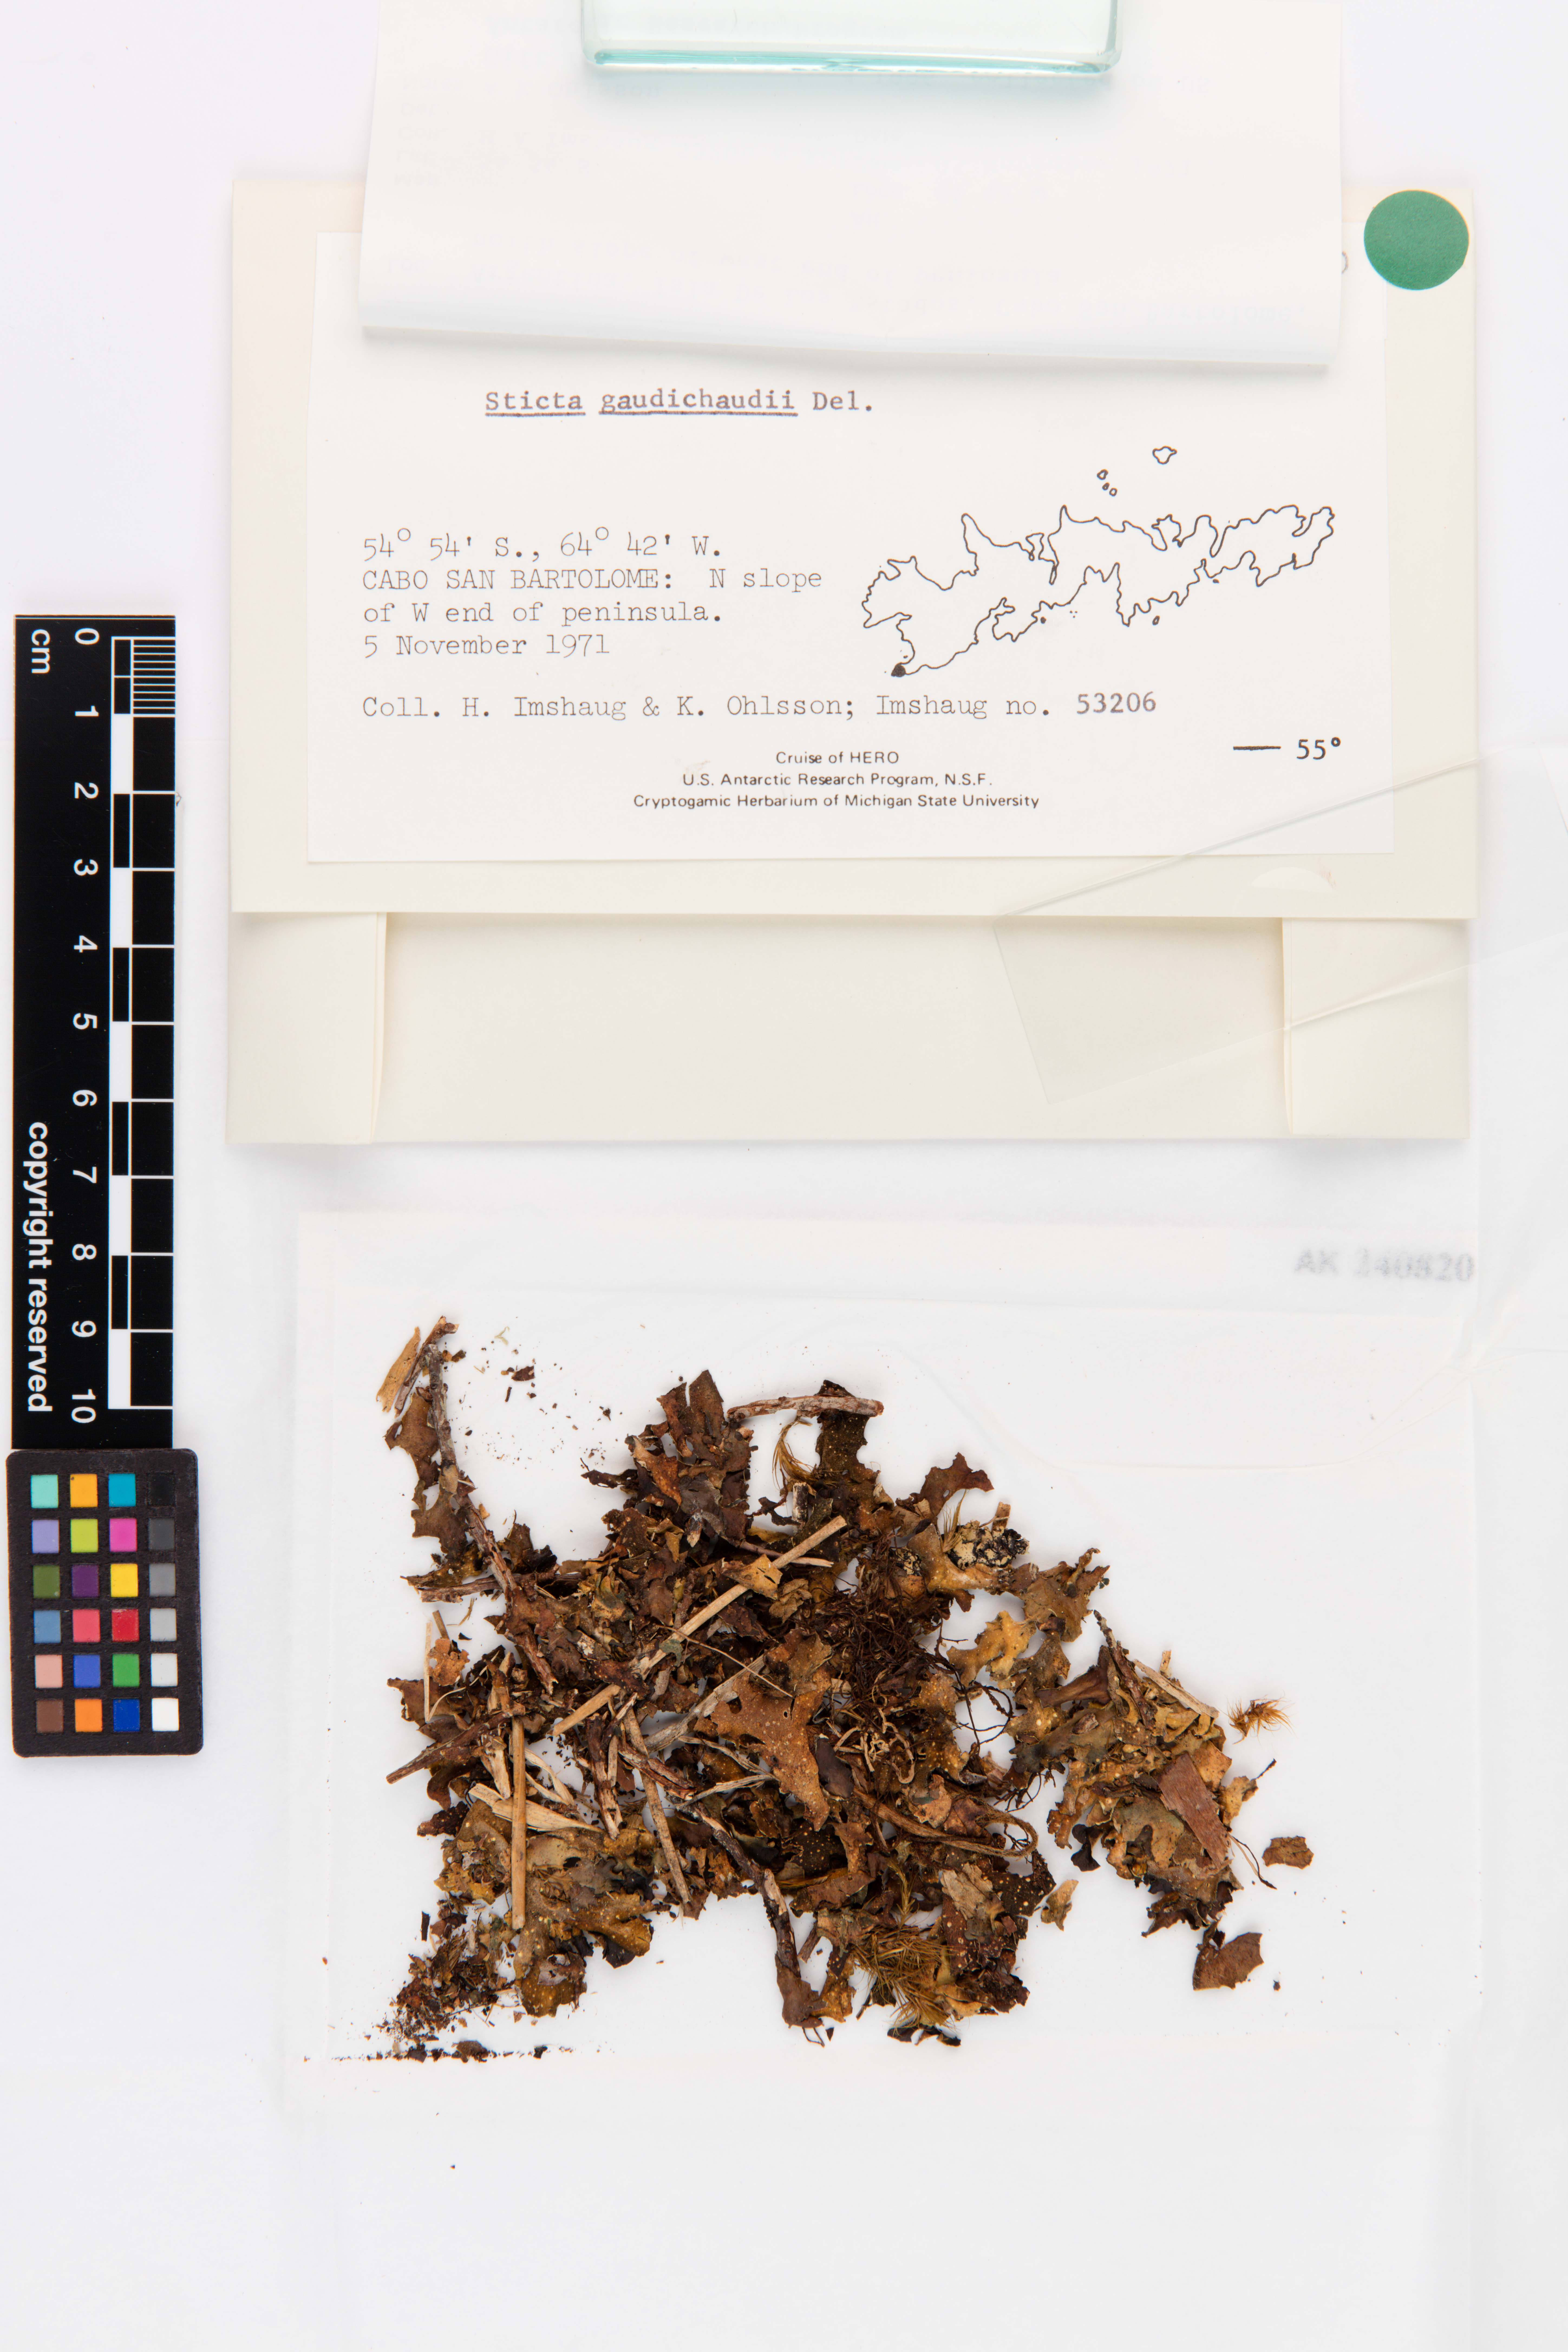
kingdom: Fungi
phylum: Ascomycota
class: Lecanoromycetes
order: Peltigerales
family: Lobariaceae
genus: Sticta
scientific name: Sticta gaudichaudii
